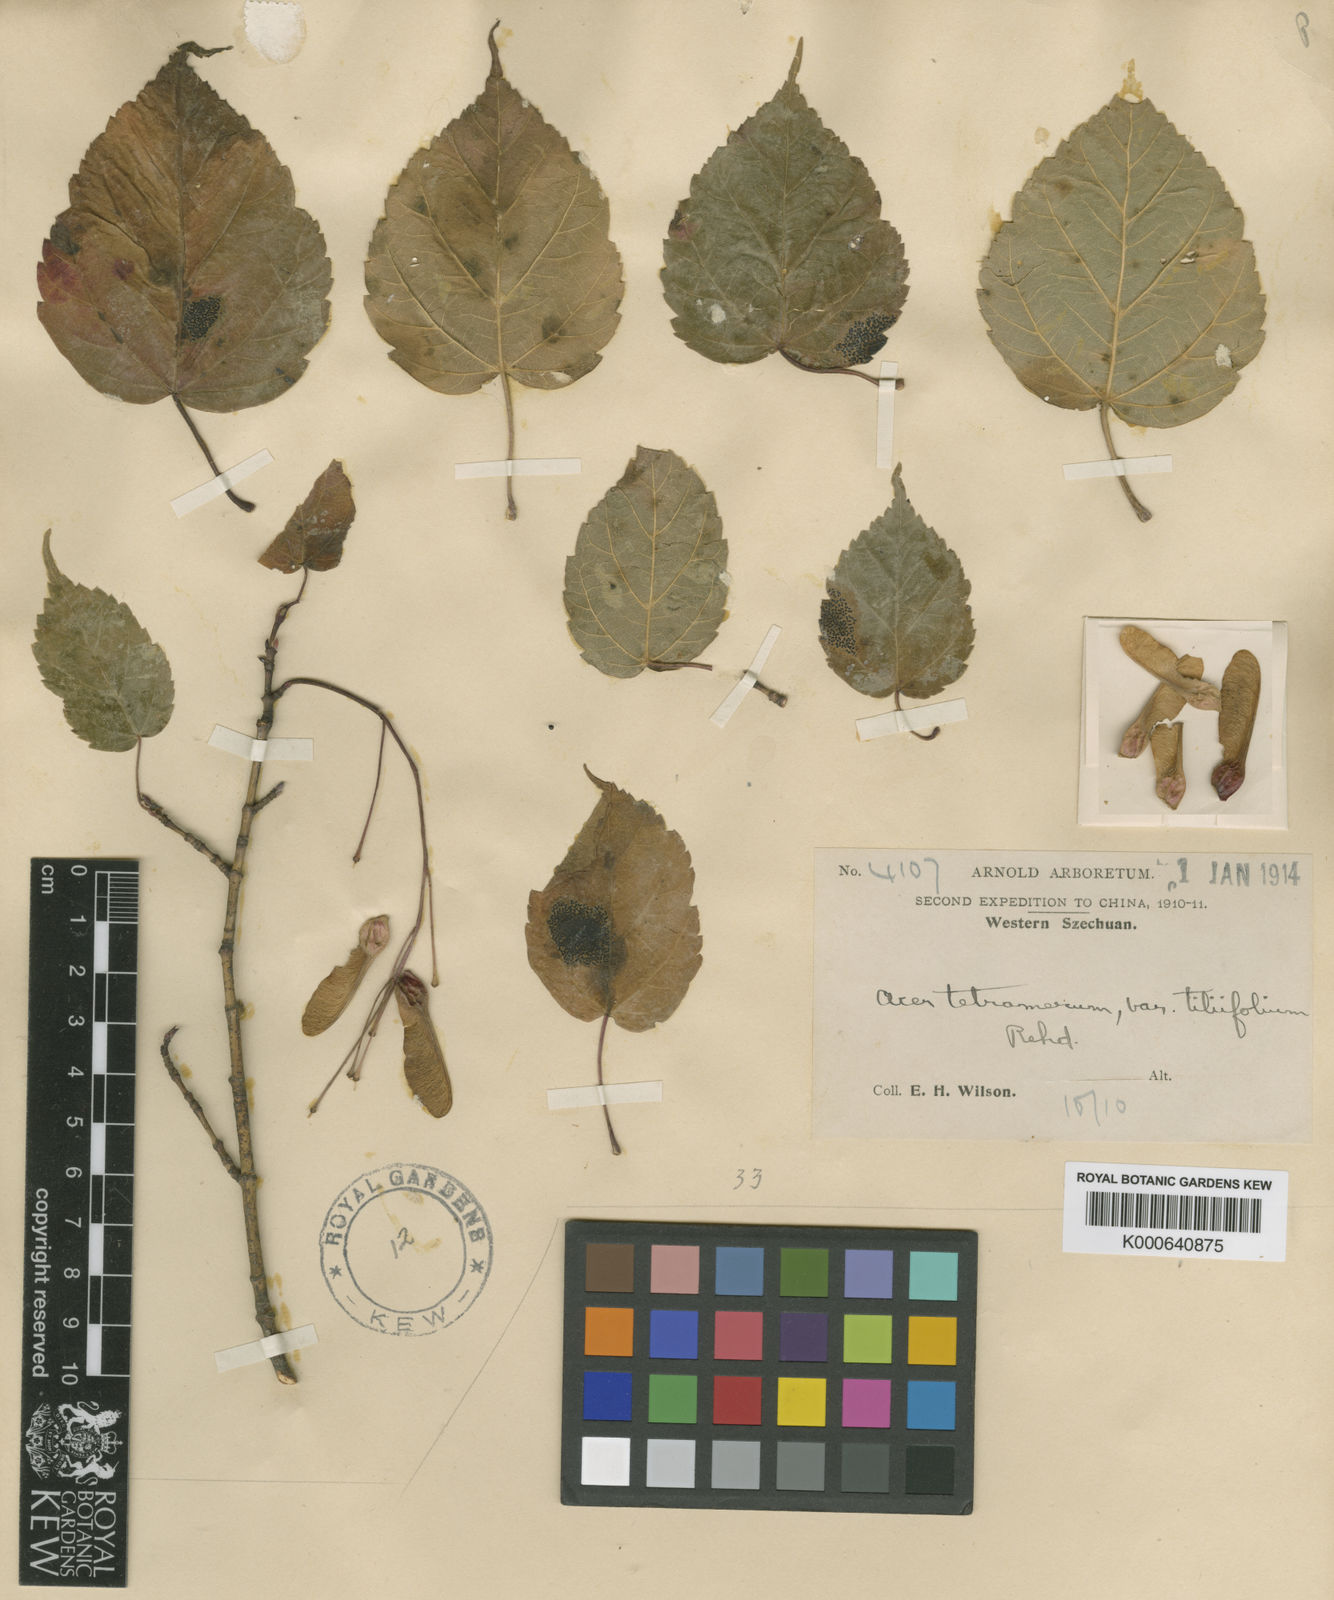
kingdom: Plantae
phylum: Tracheophyta
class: Magnoliopsida
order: Sapindales
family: Sapindaceae
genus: Acer
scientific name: Acer stachyophyllum
